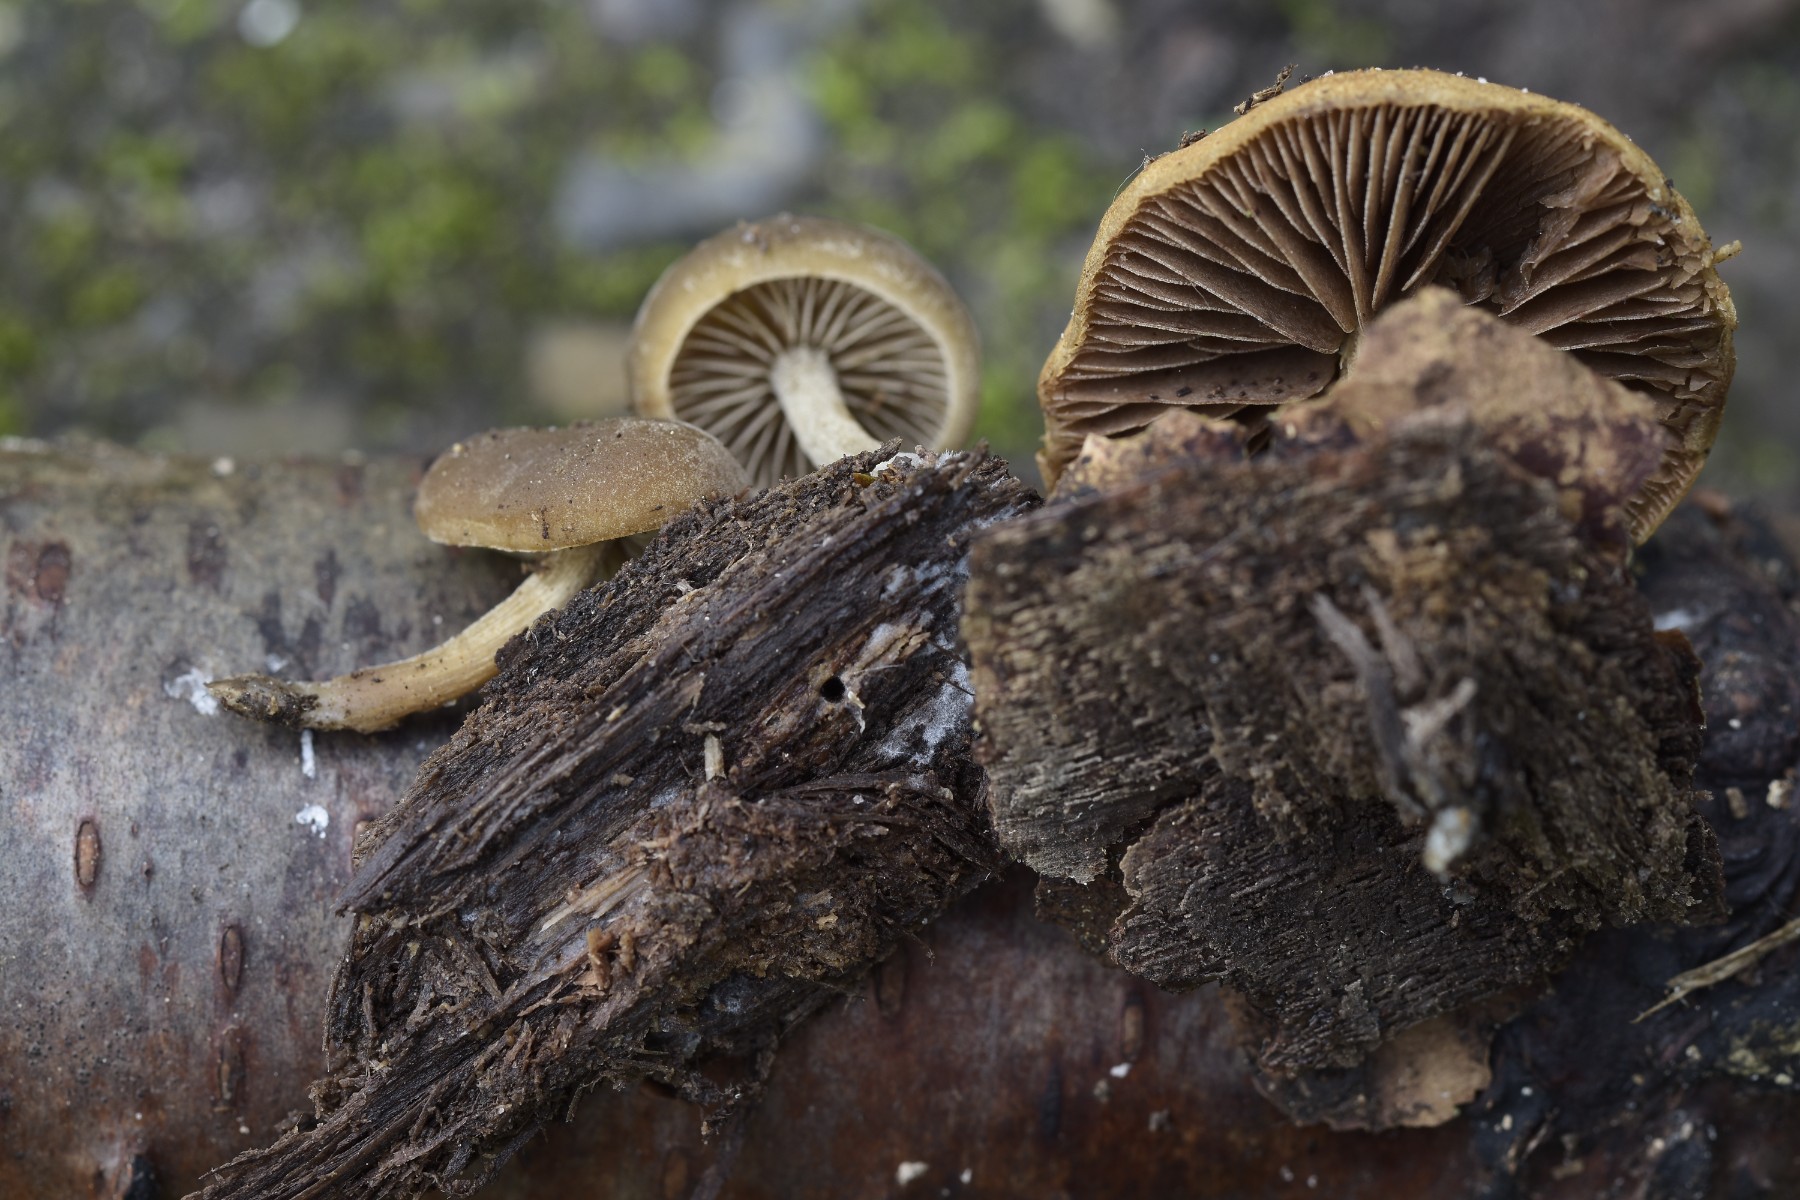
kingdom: Fungi
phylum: Basidiomycota
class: Agaricomycetes
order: Agaricales
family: Crepidotaceae
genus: Simocybe
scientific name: Simocybe sumptuosa
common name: stor skyggehat
